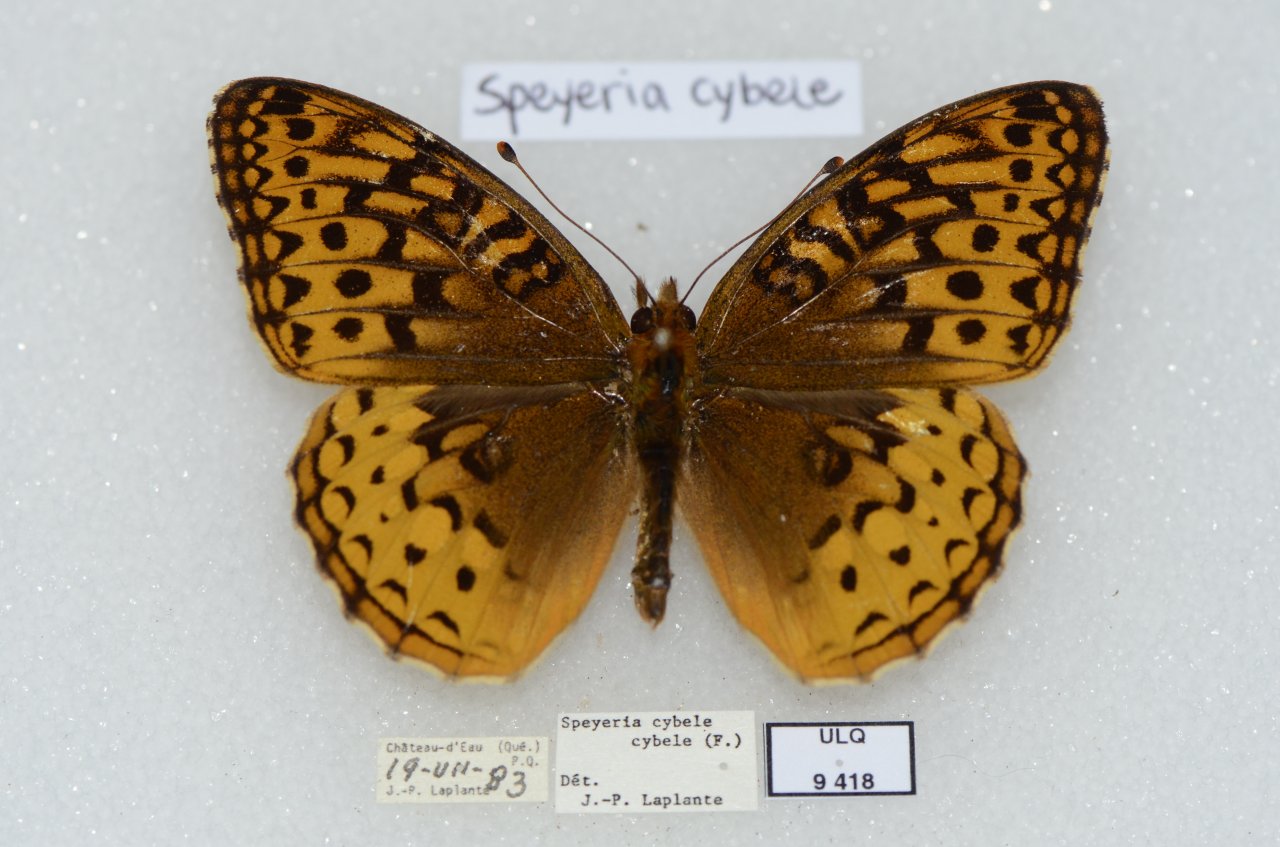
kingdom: Animalia
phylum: Arthropoda
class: Insecta
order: Lepidoptera
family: Nymphalidae
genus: Speyeria
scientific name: Speyeria cybele
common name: Great Spangled Fritillary
